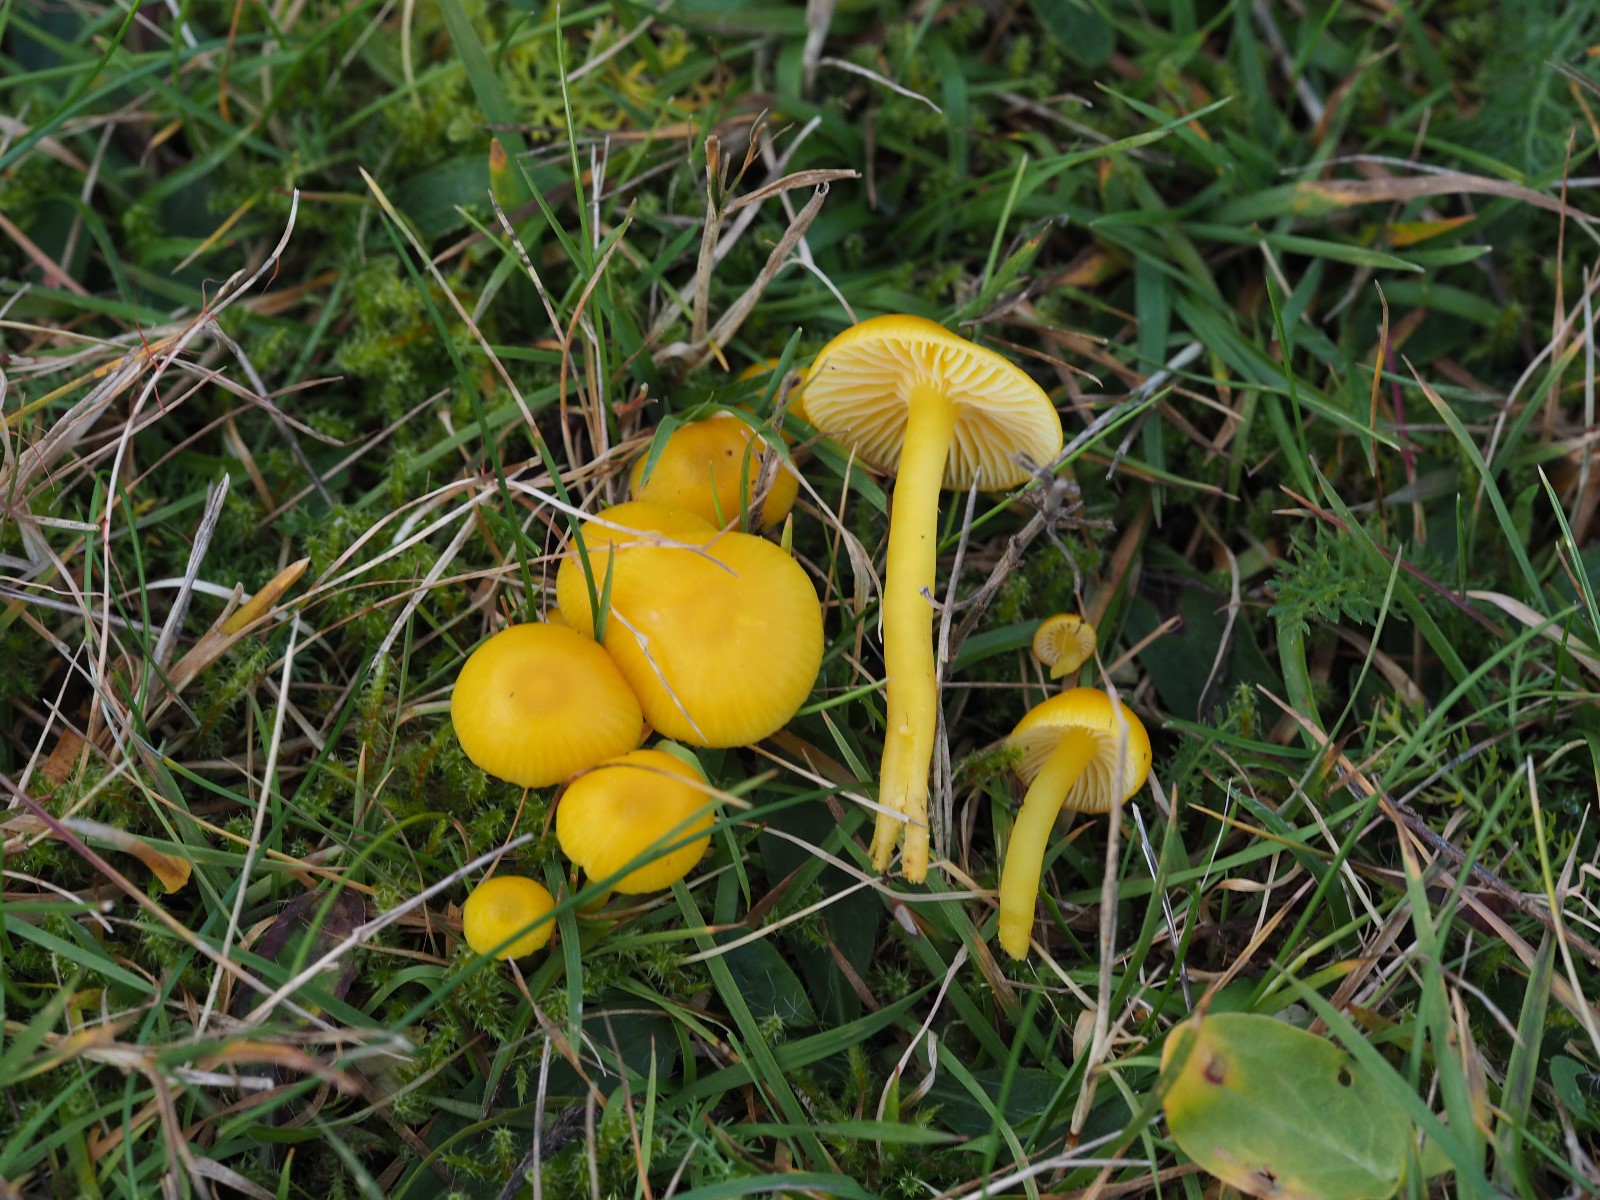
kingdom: Fungi
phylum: Basidiomycota
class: Agaricomycetes
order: Agaricales
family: Hygrophoraceae
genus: Hygrocybe
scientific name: Hygrocybe ceracea
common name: voksgul vokshat
